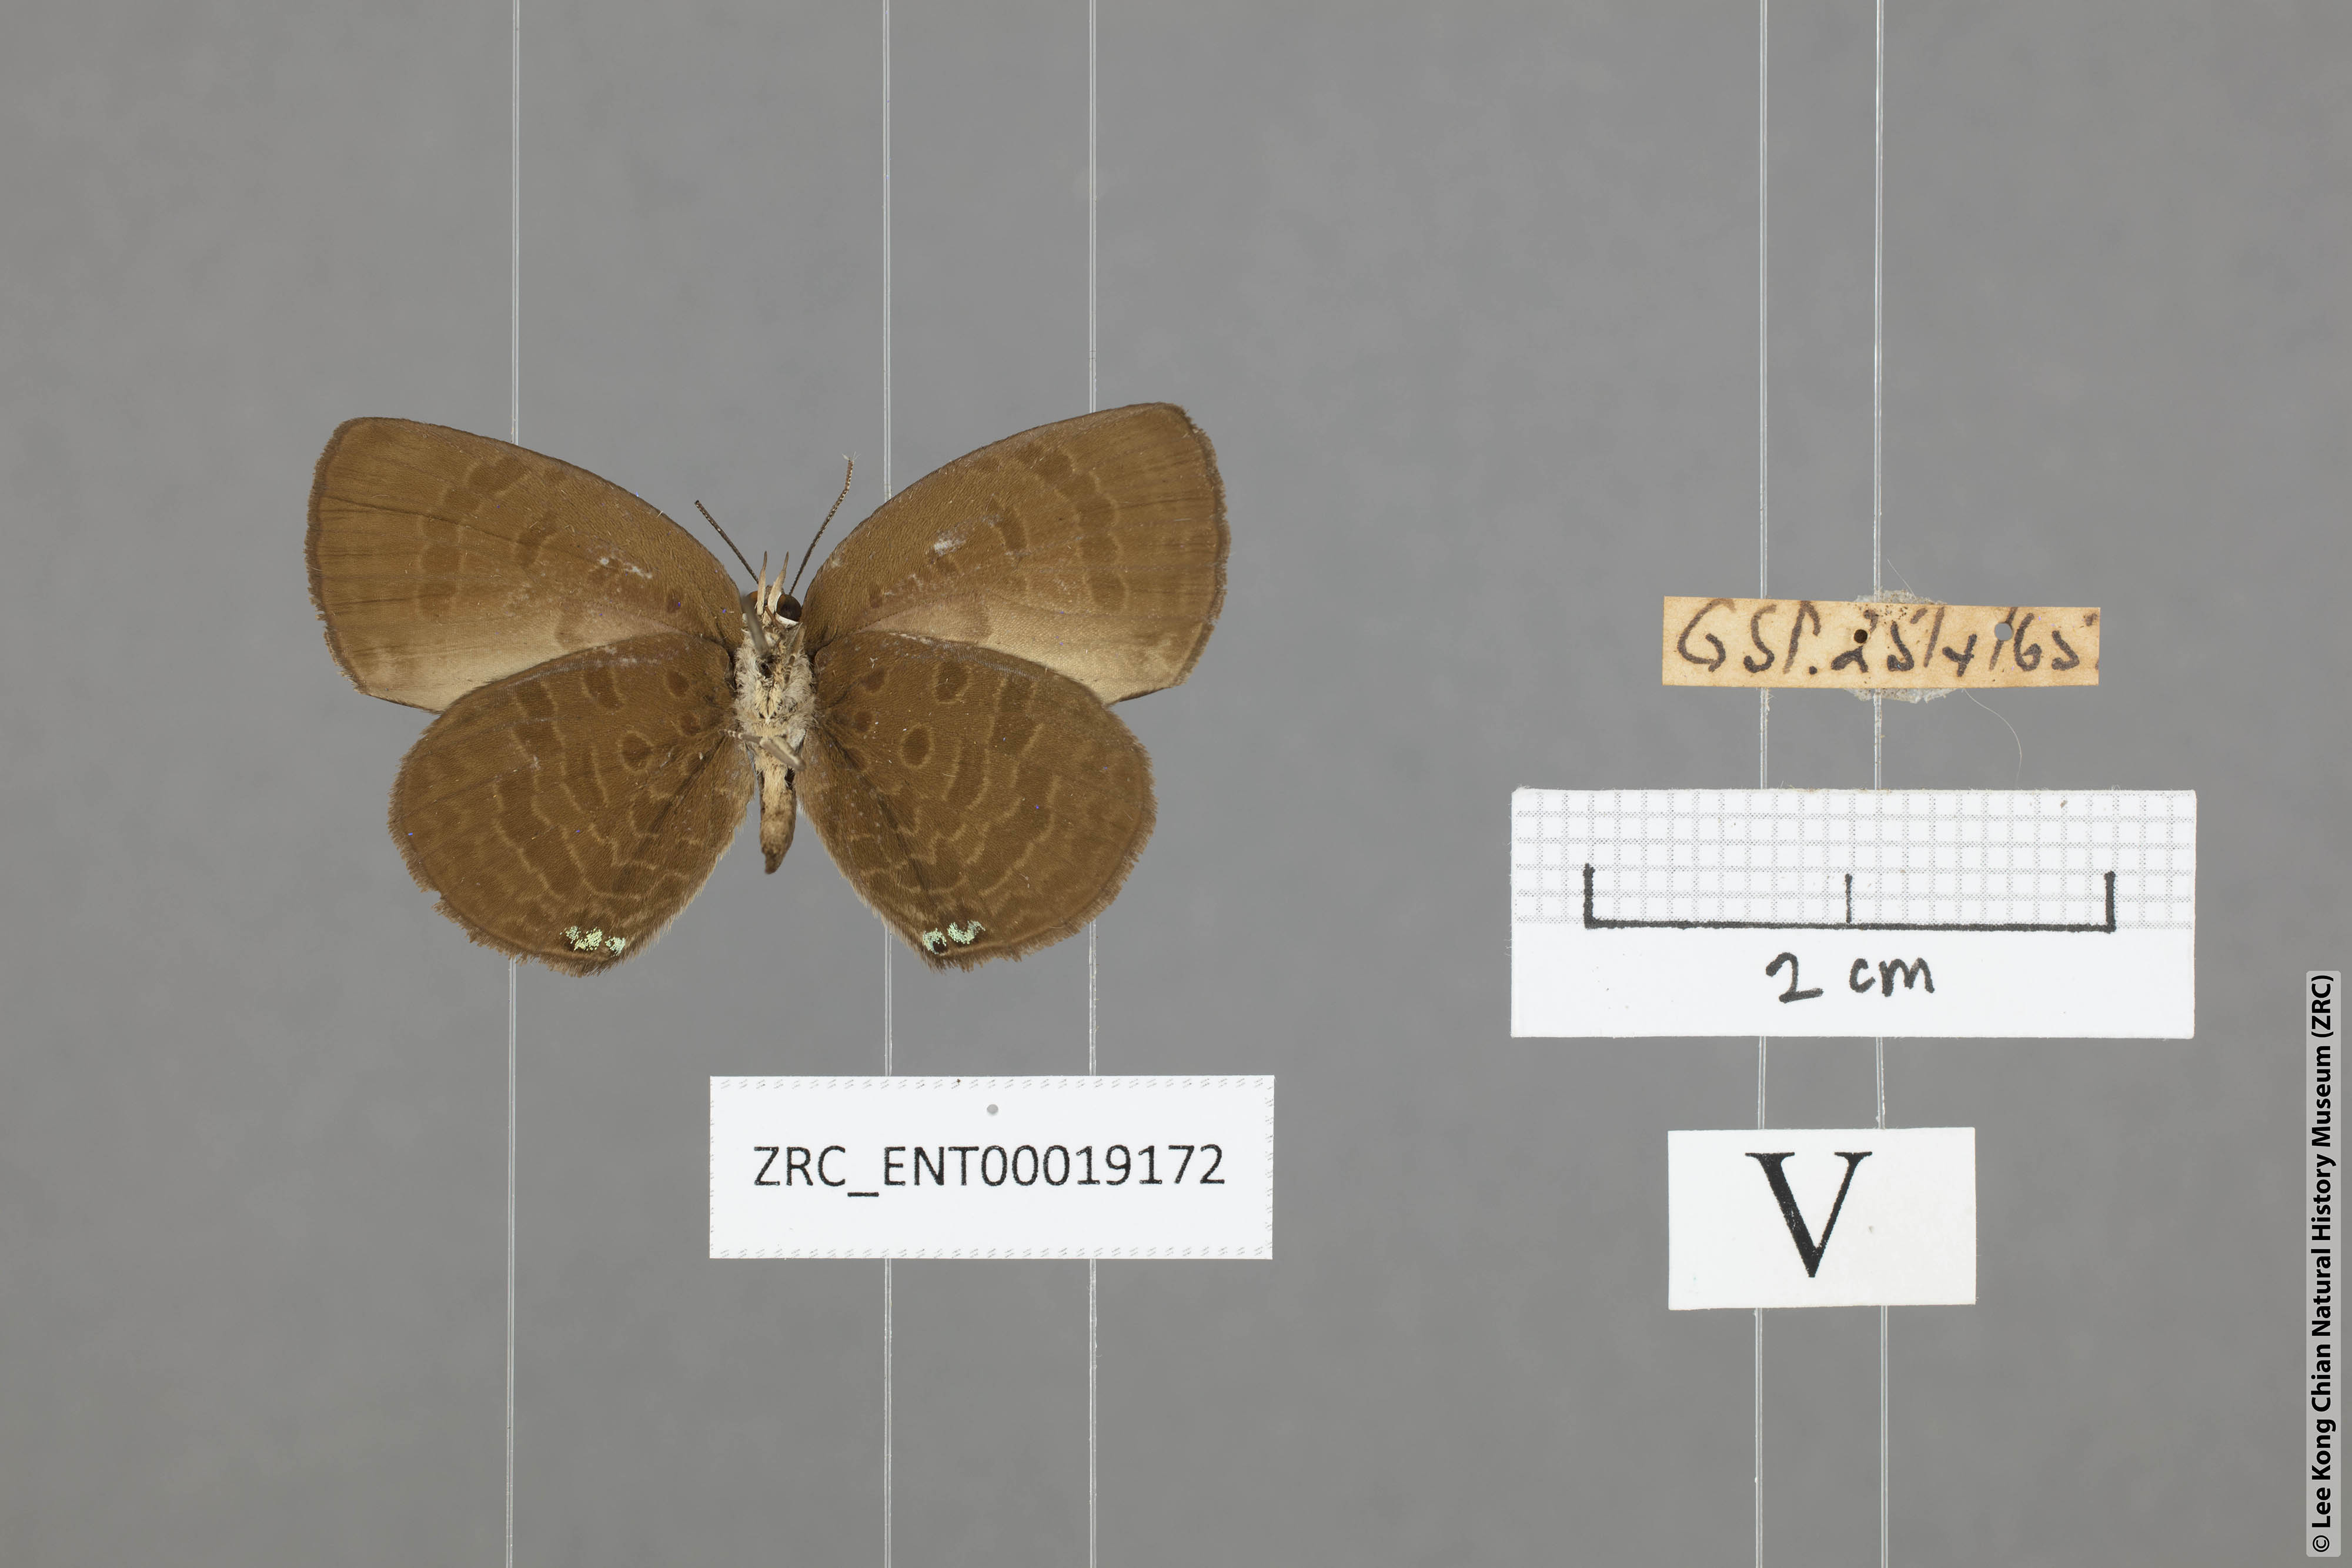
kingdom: Animalia
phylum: Arthropoda
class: Insecta
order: Lepidoptera
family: Lycaenidae
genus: Arhopala
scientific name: Arhopala antimuta
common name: Small tailless oakblue
